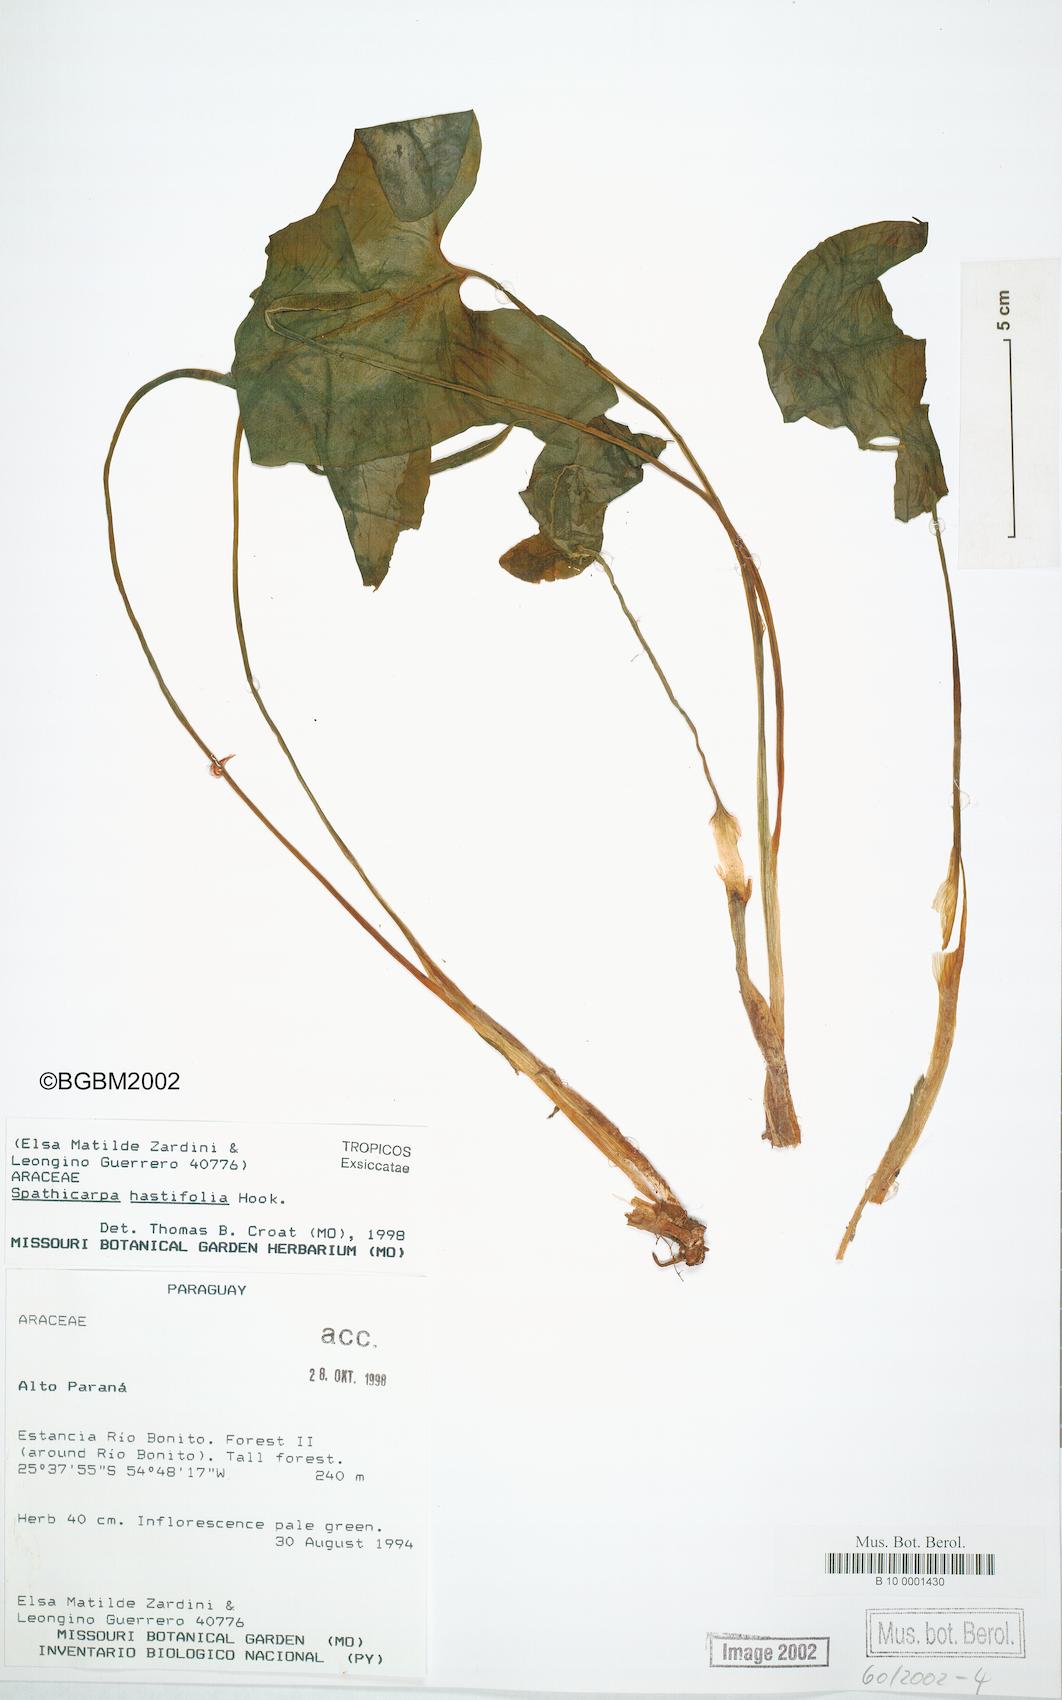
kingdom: Plantae
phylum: Tracheophyta
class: Liliopsida
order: Alismatales
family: Araceae
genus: Spathicarpa
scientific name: Spathicarpa hastifolia
